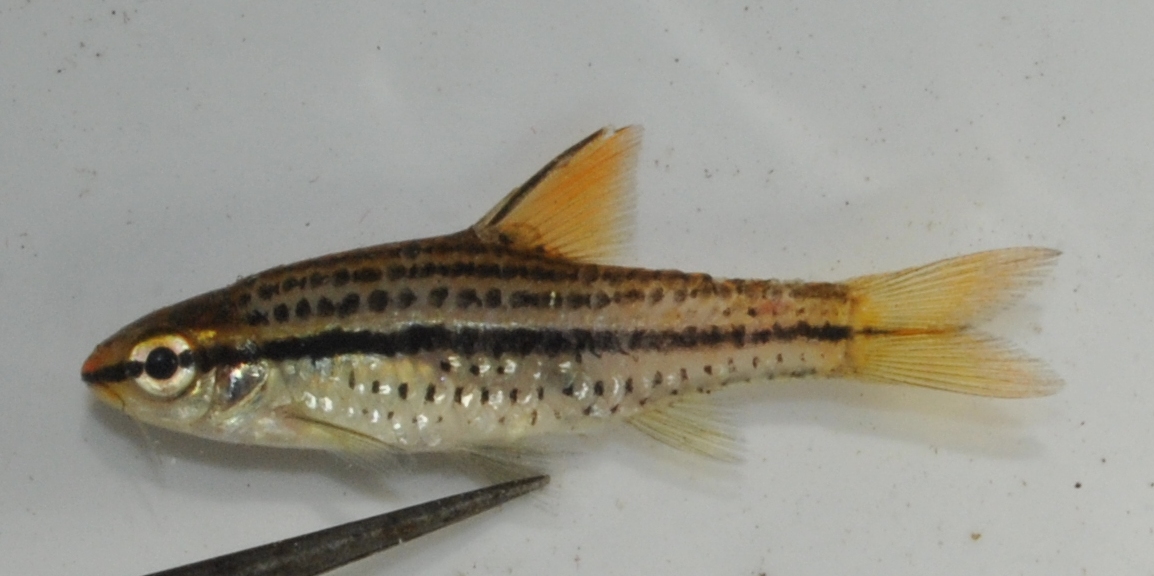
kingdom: Animalia
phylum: Chordata
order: Cypriniformes
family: Cyprinidae
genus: Enteromius
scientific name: Enteromius multilineatus
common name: Copperstripe barb
